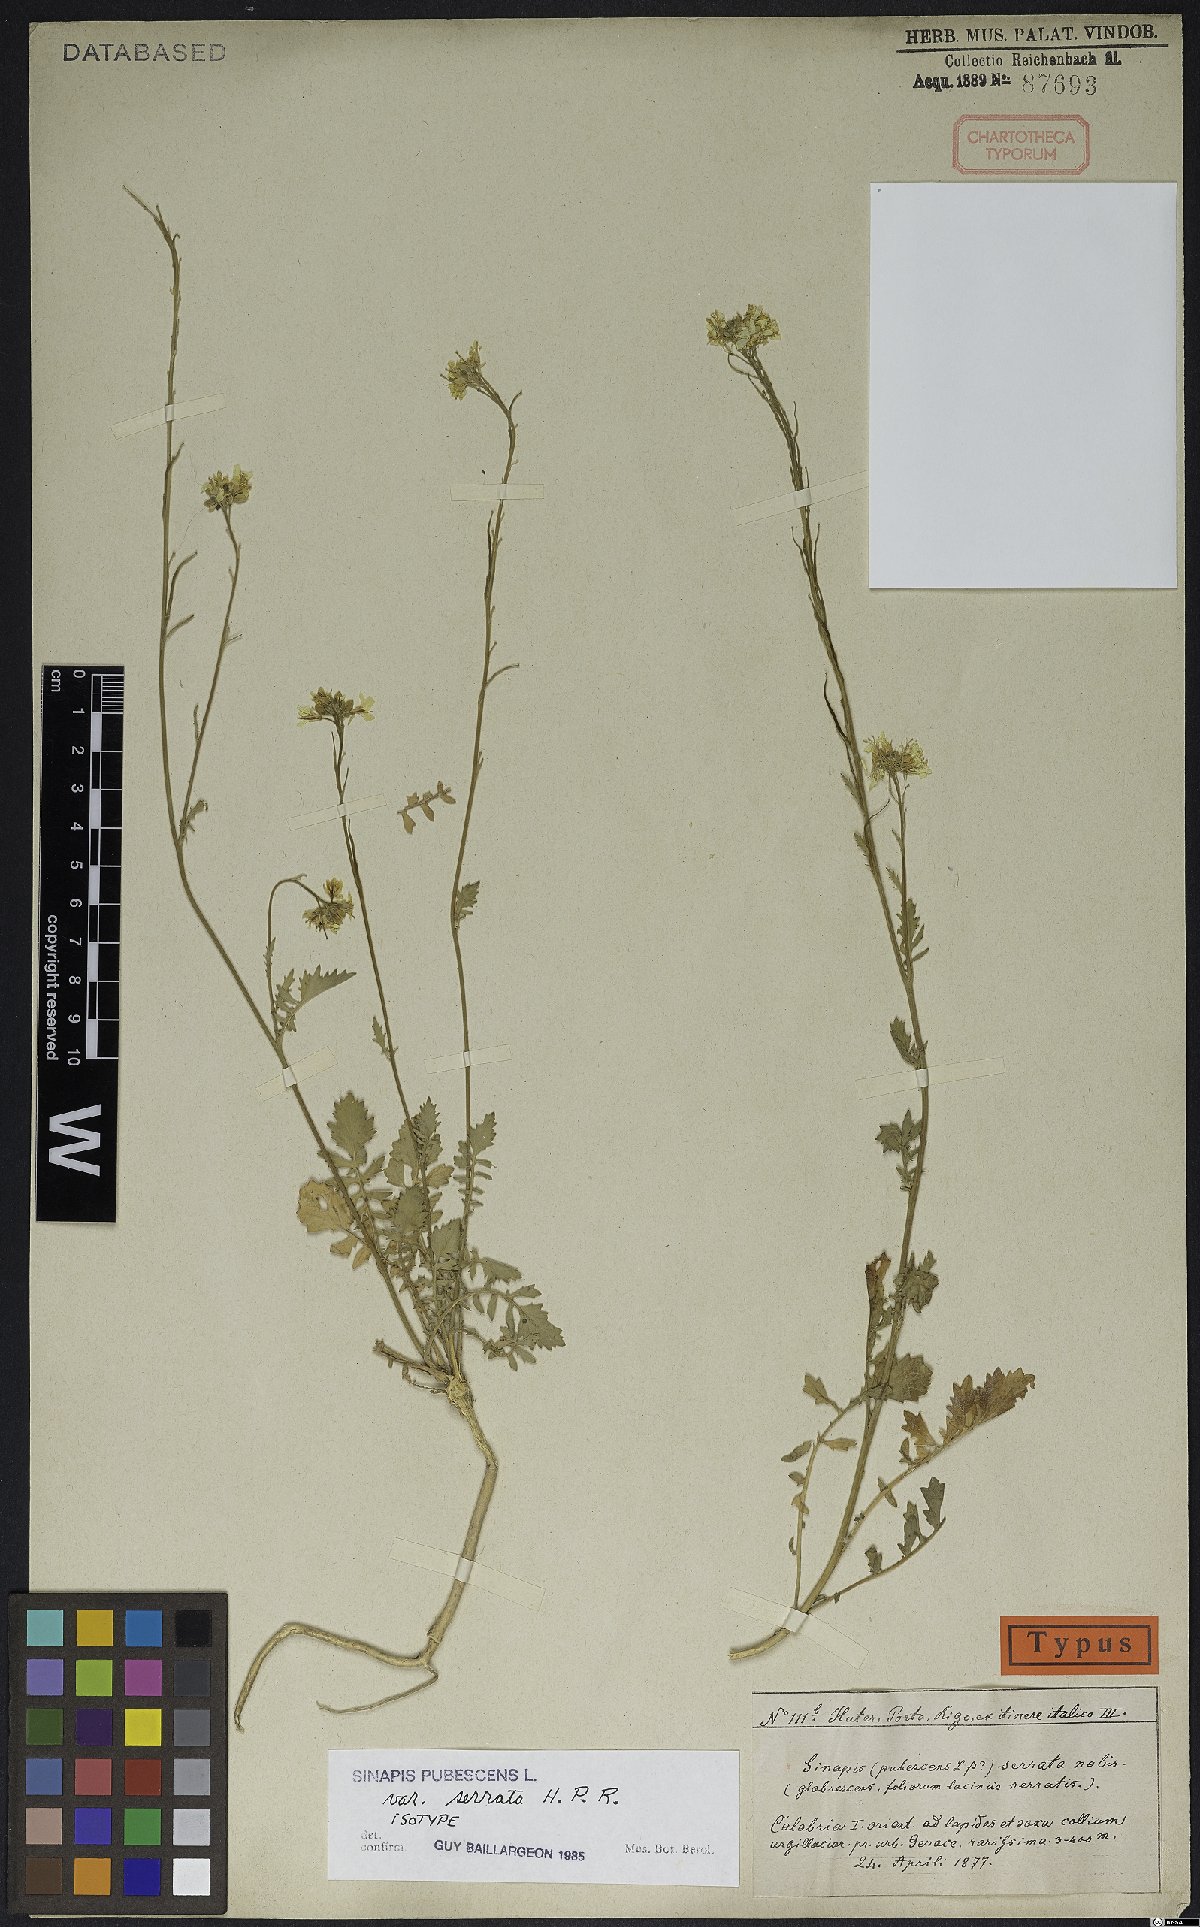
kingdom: Plantae
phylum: Tracheophyta
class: Magnoliopsida
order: Brassicales
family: Brassicaceae
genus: Sinapis
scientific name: Sinapis pubescens
